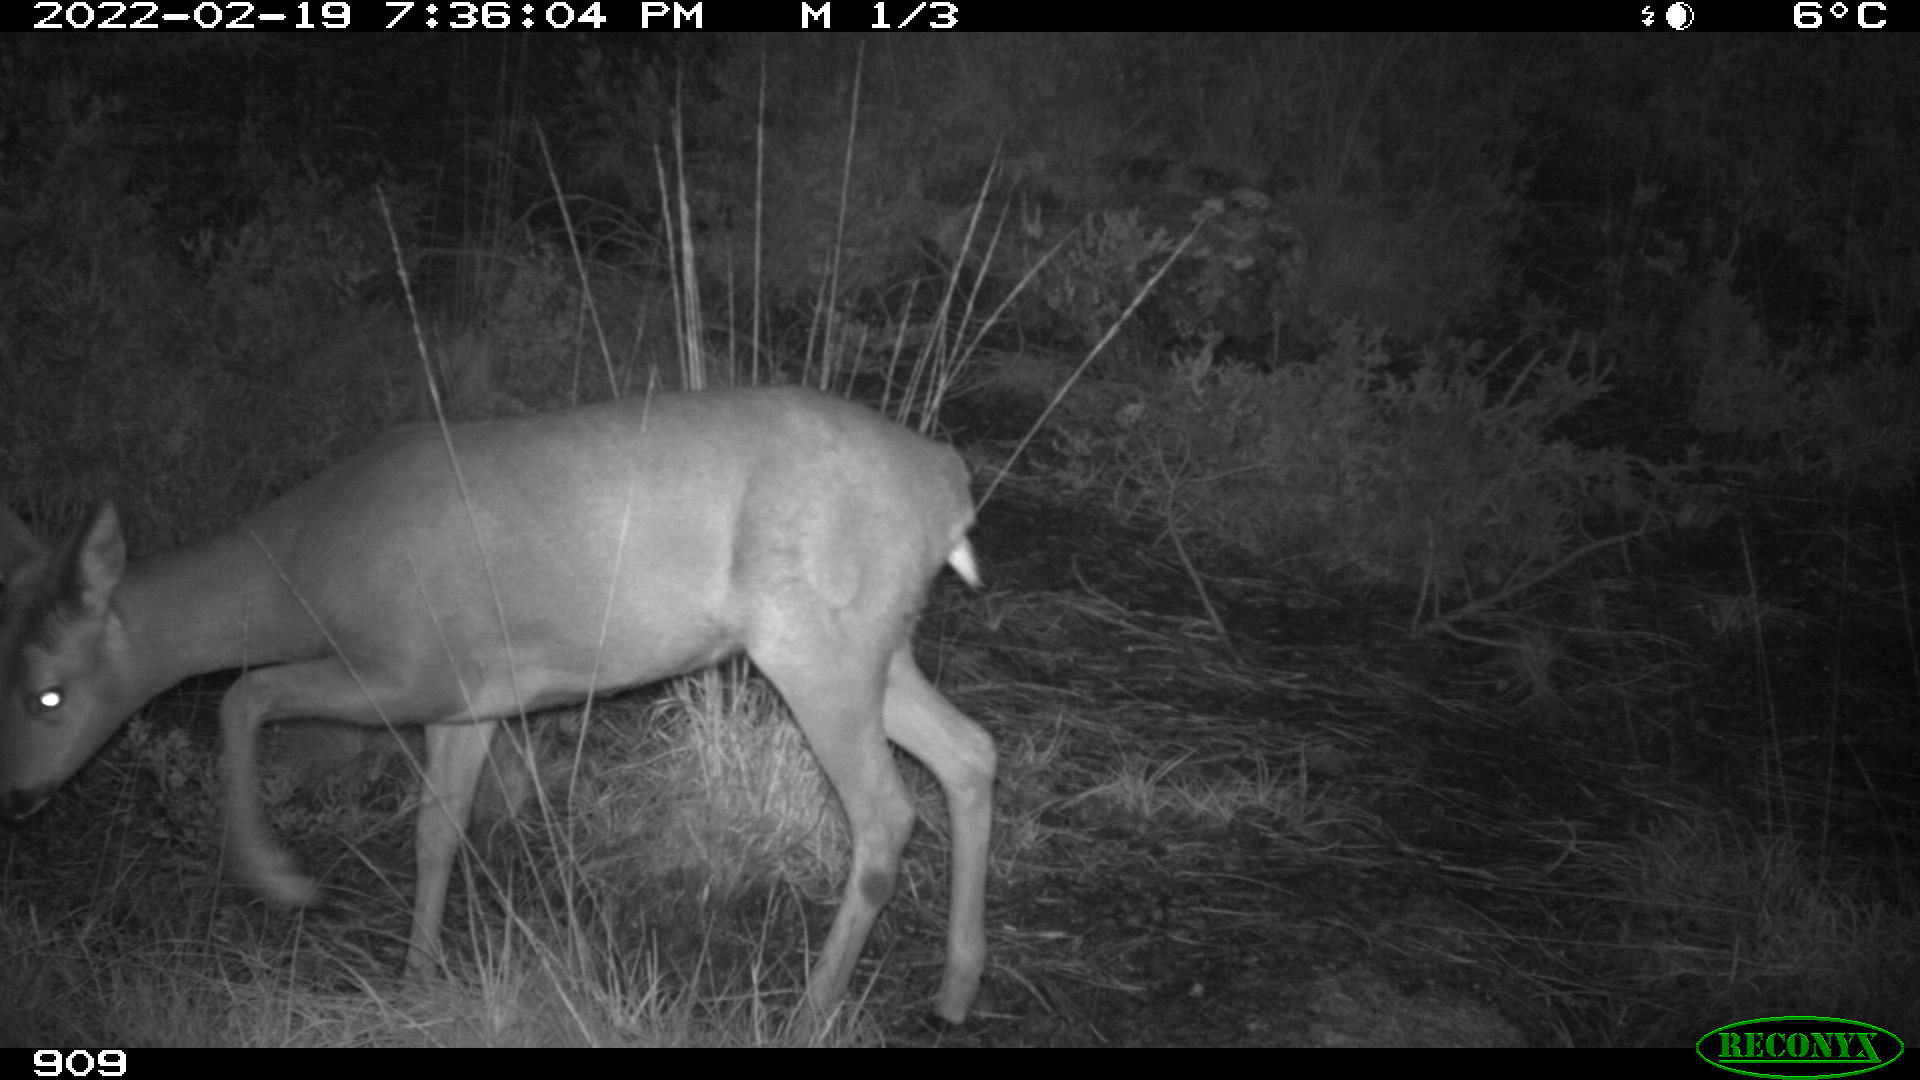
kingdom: Animalia
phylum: Chordata
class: Mammalia
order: Artiodactyla
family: Cervidae
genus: Capreolus
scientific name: Capreolus capreolus
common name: Western roe deer
